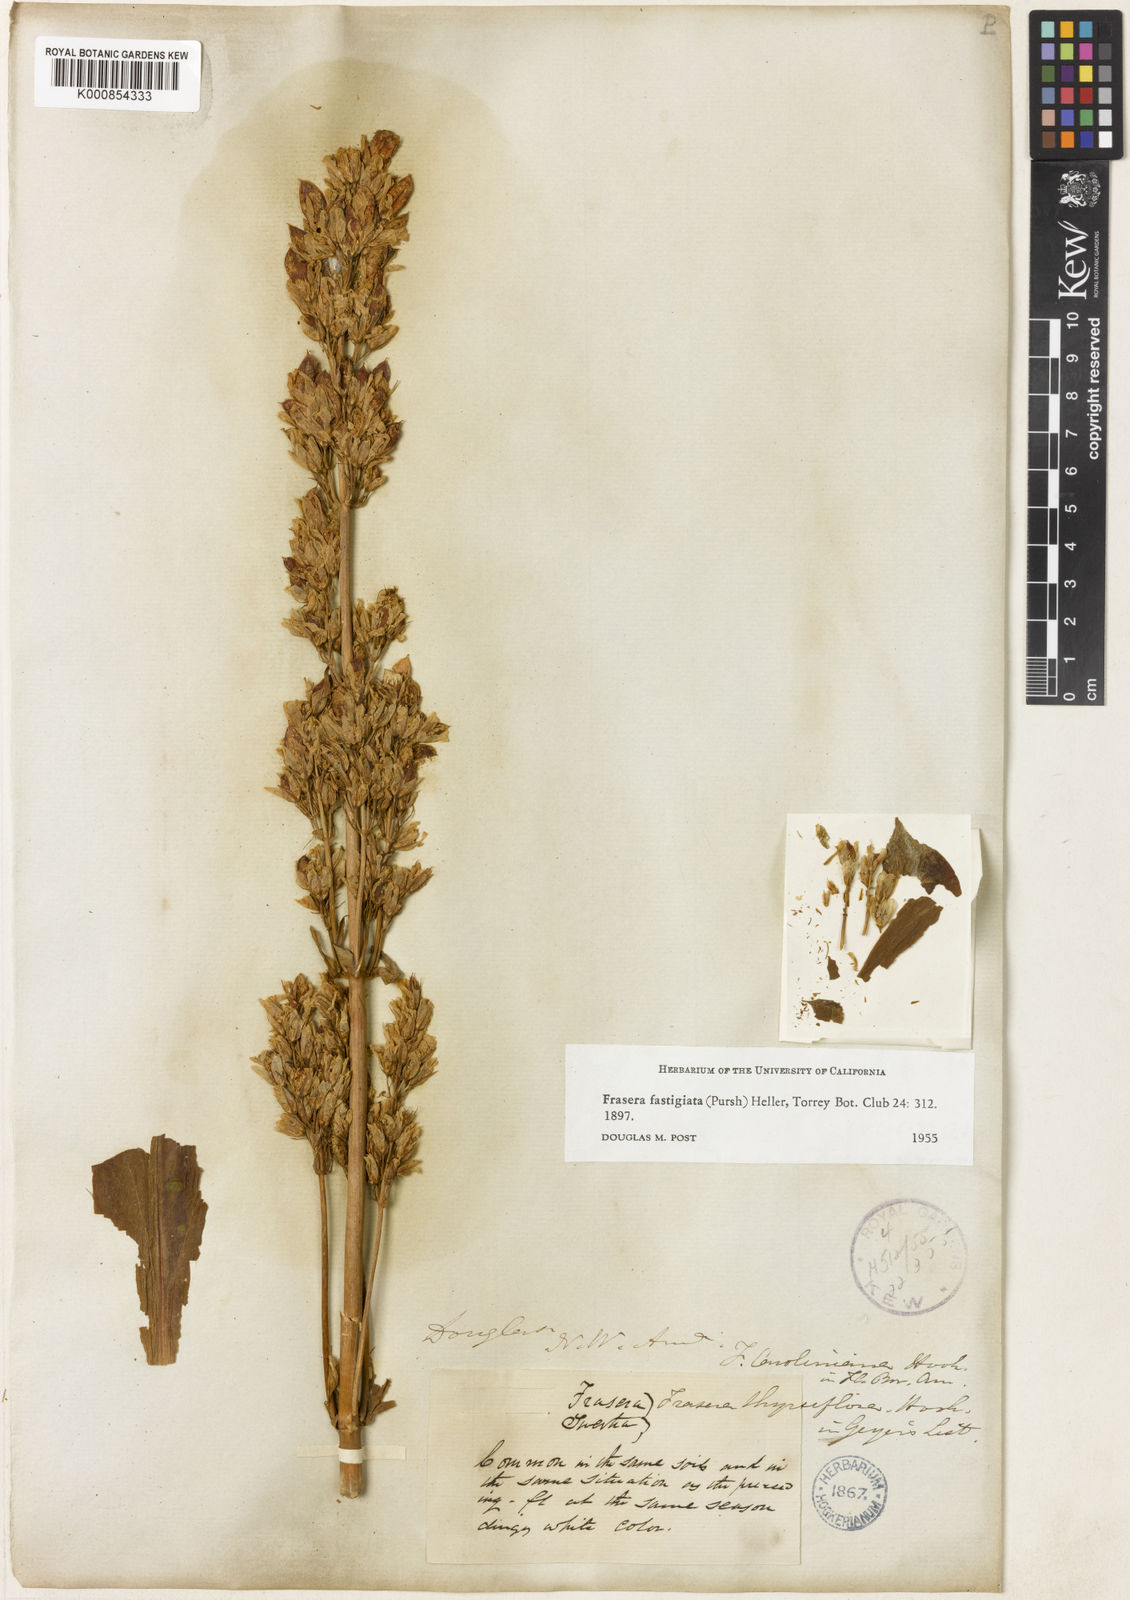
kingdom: Plantae
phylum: Tracheophyta
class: Magnoliopsida
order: Gentianales
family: Gentianaceae
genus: Frasera
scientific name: Frasera fastigiata
